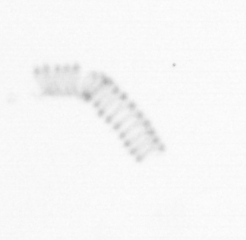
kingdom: Chromista
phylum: Ochrophyta
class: Bacillariophyceae
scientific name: Bacillariophyceae
